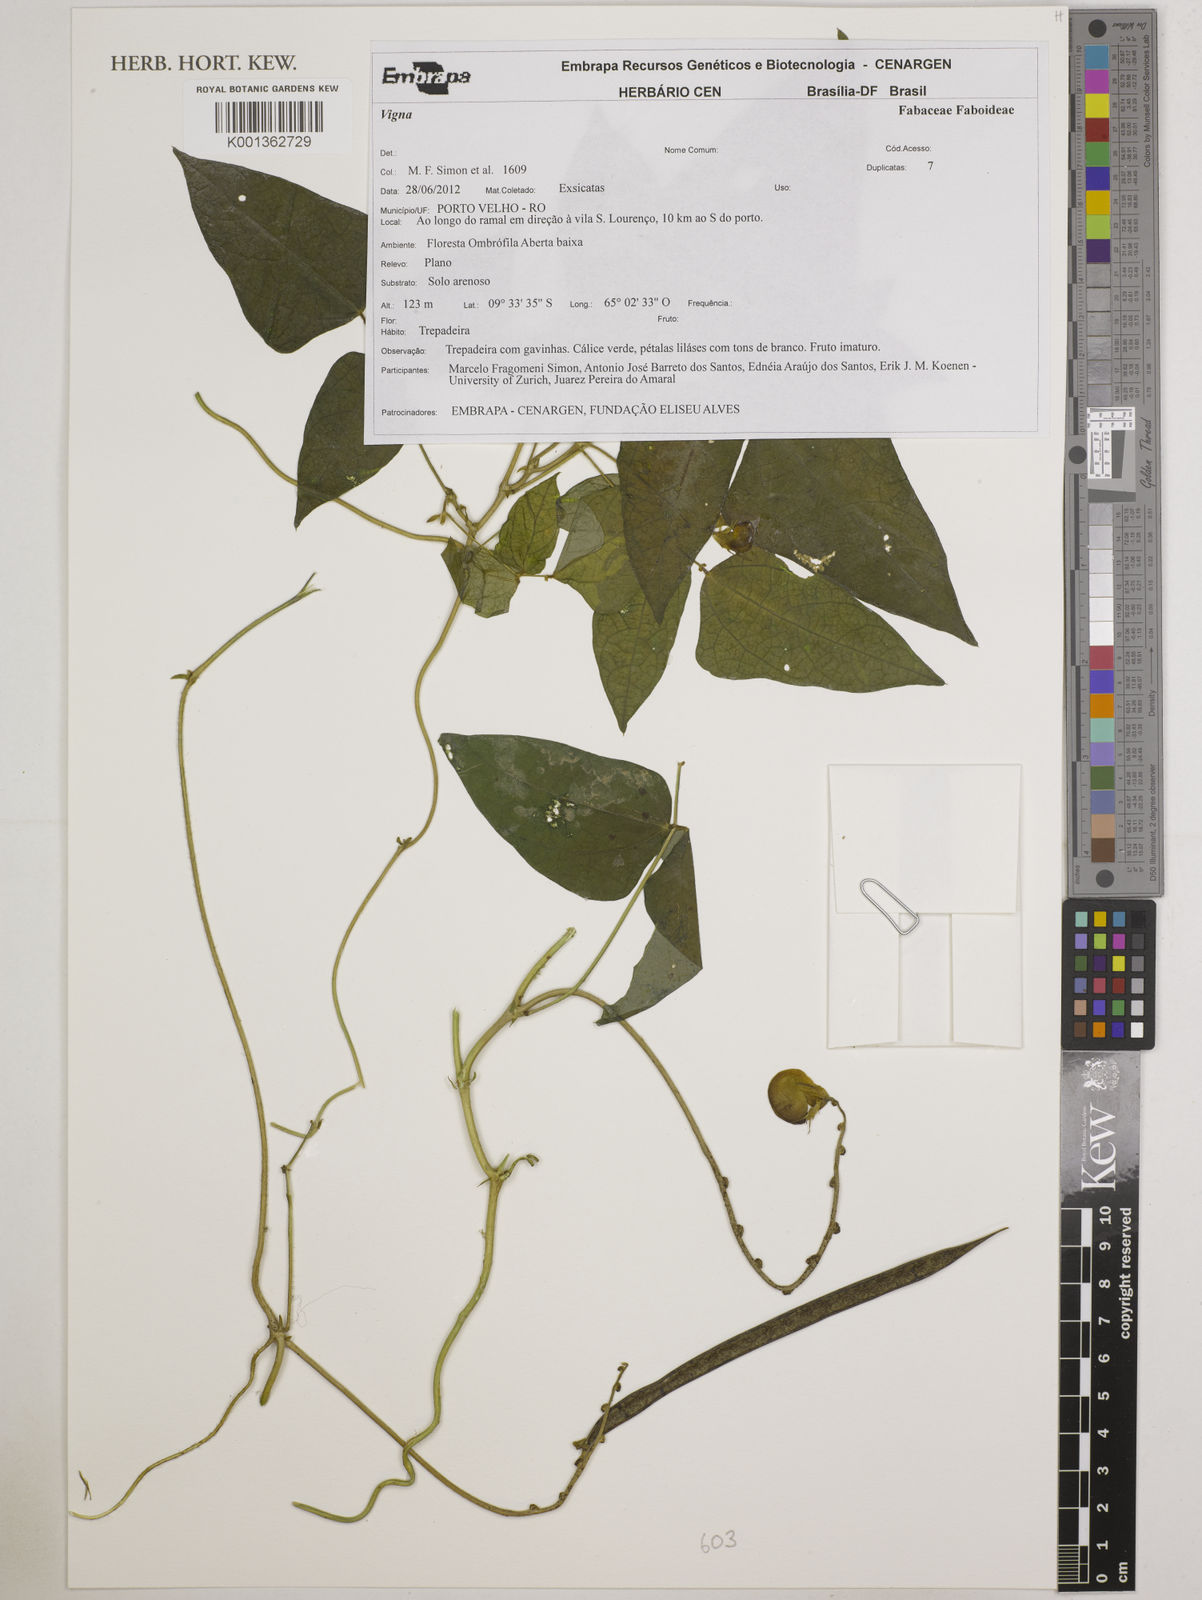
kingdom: Plantae
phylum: Tracheophyta
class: Magnoliopsida
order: Fabales
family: Fabaceae
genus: Vigna
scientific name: Vigna
